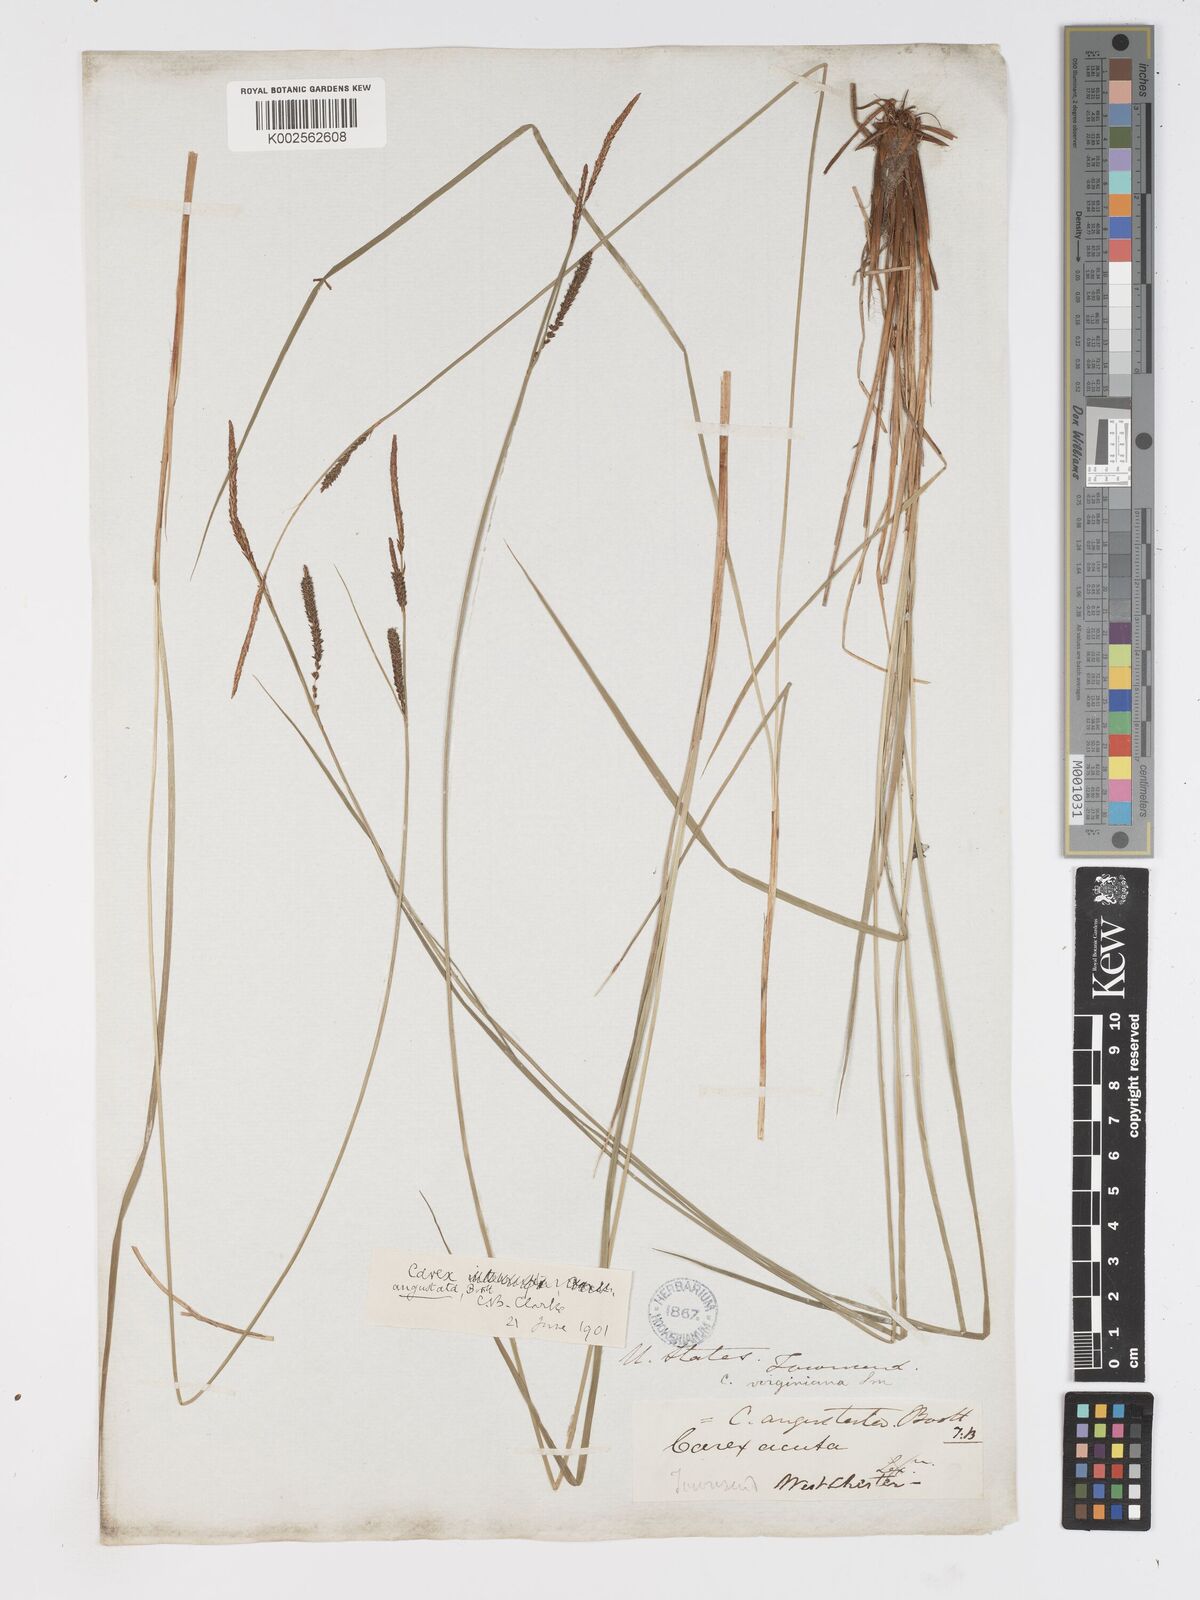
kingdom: Plantae
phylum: Tracheophyta
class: Liliopsida
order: Poales
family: Cyperaceae
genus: Carex
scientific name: Carex stricta
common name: Hummock sedge
